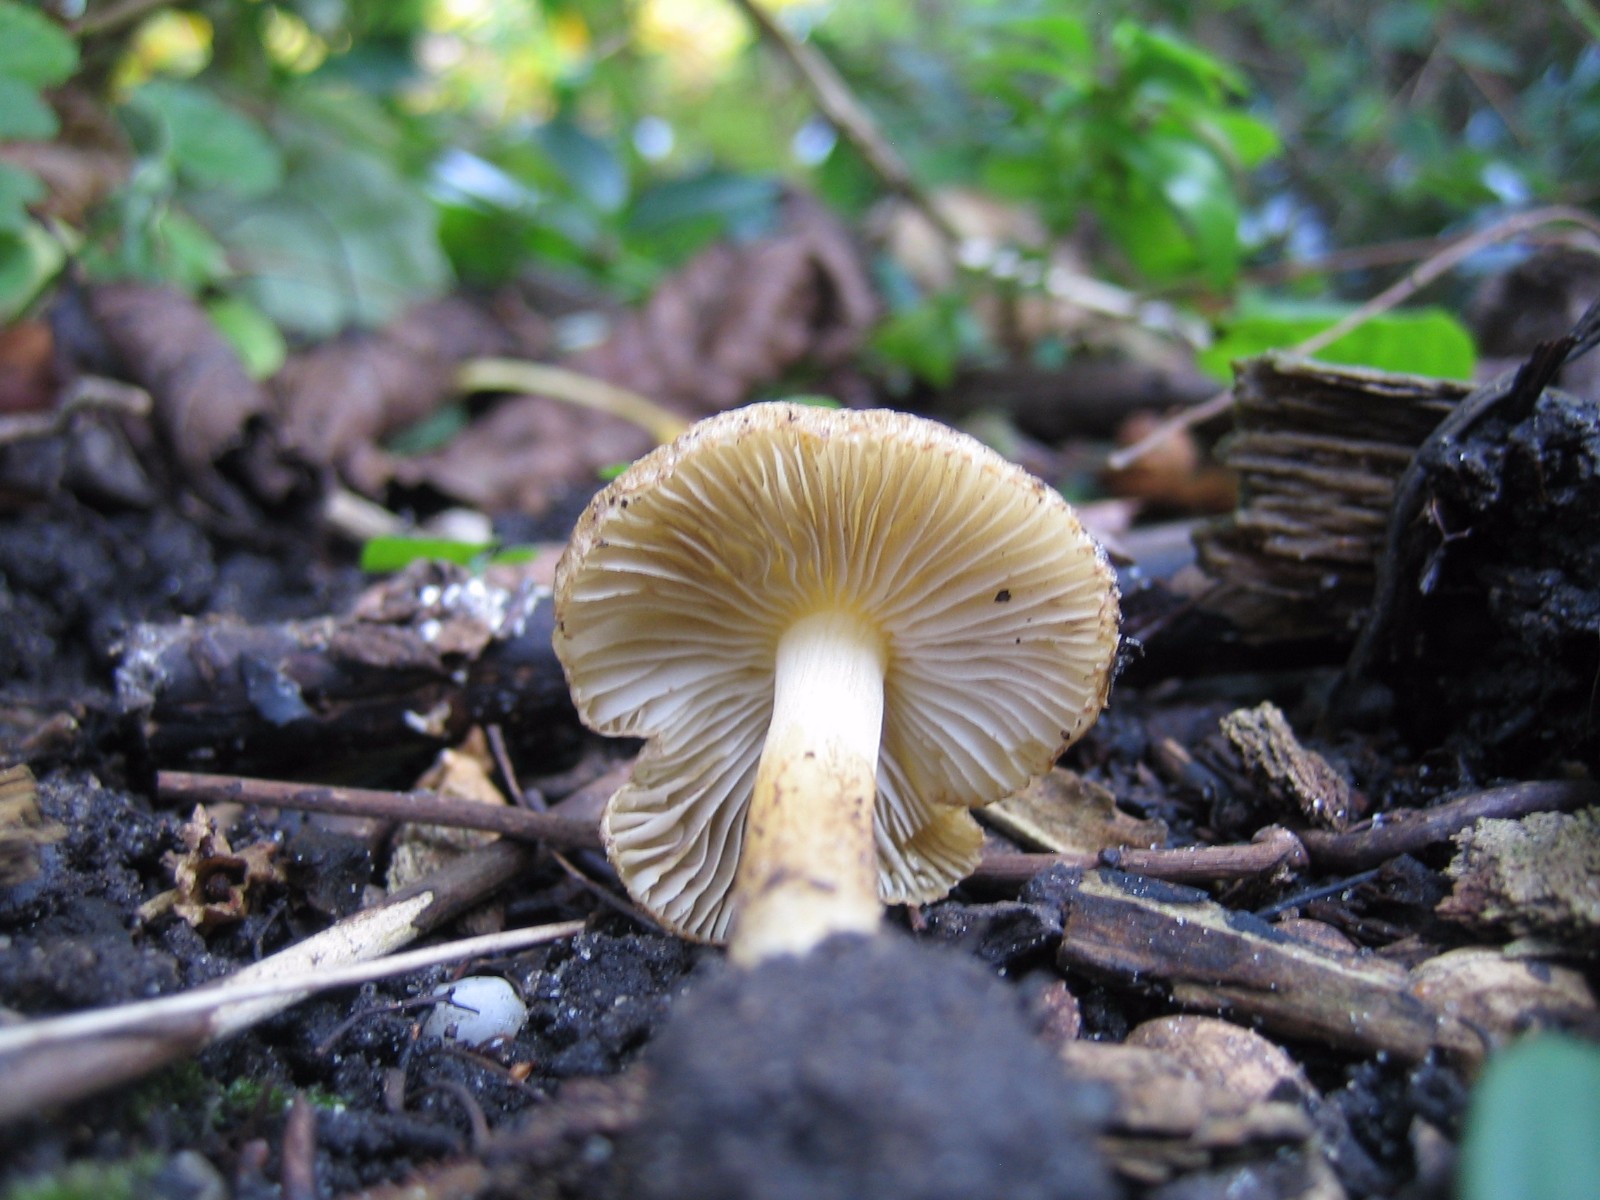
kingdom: Fungi
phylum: Basidiomycota
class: Agaricomycetes
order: Agaricales
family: Inocybaceae
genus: Inocybe
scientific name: Inocybe
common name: trævlhat
